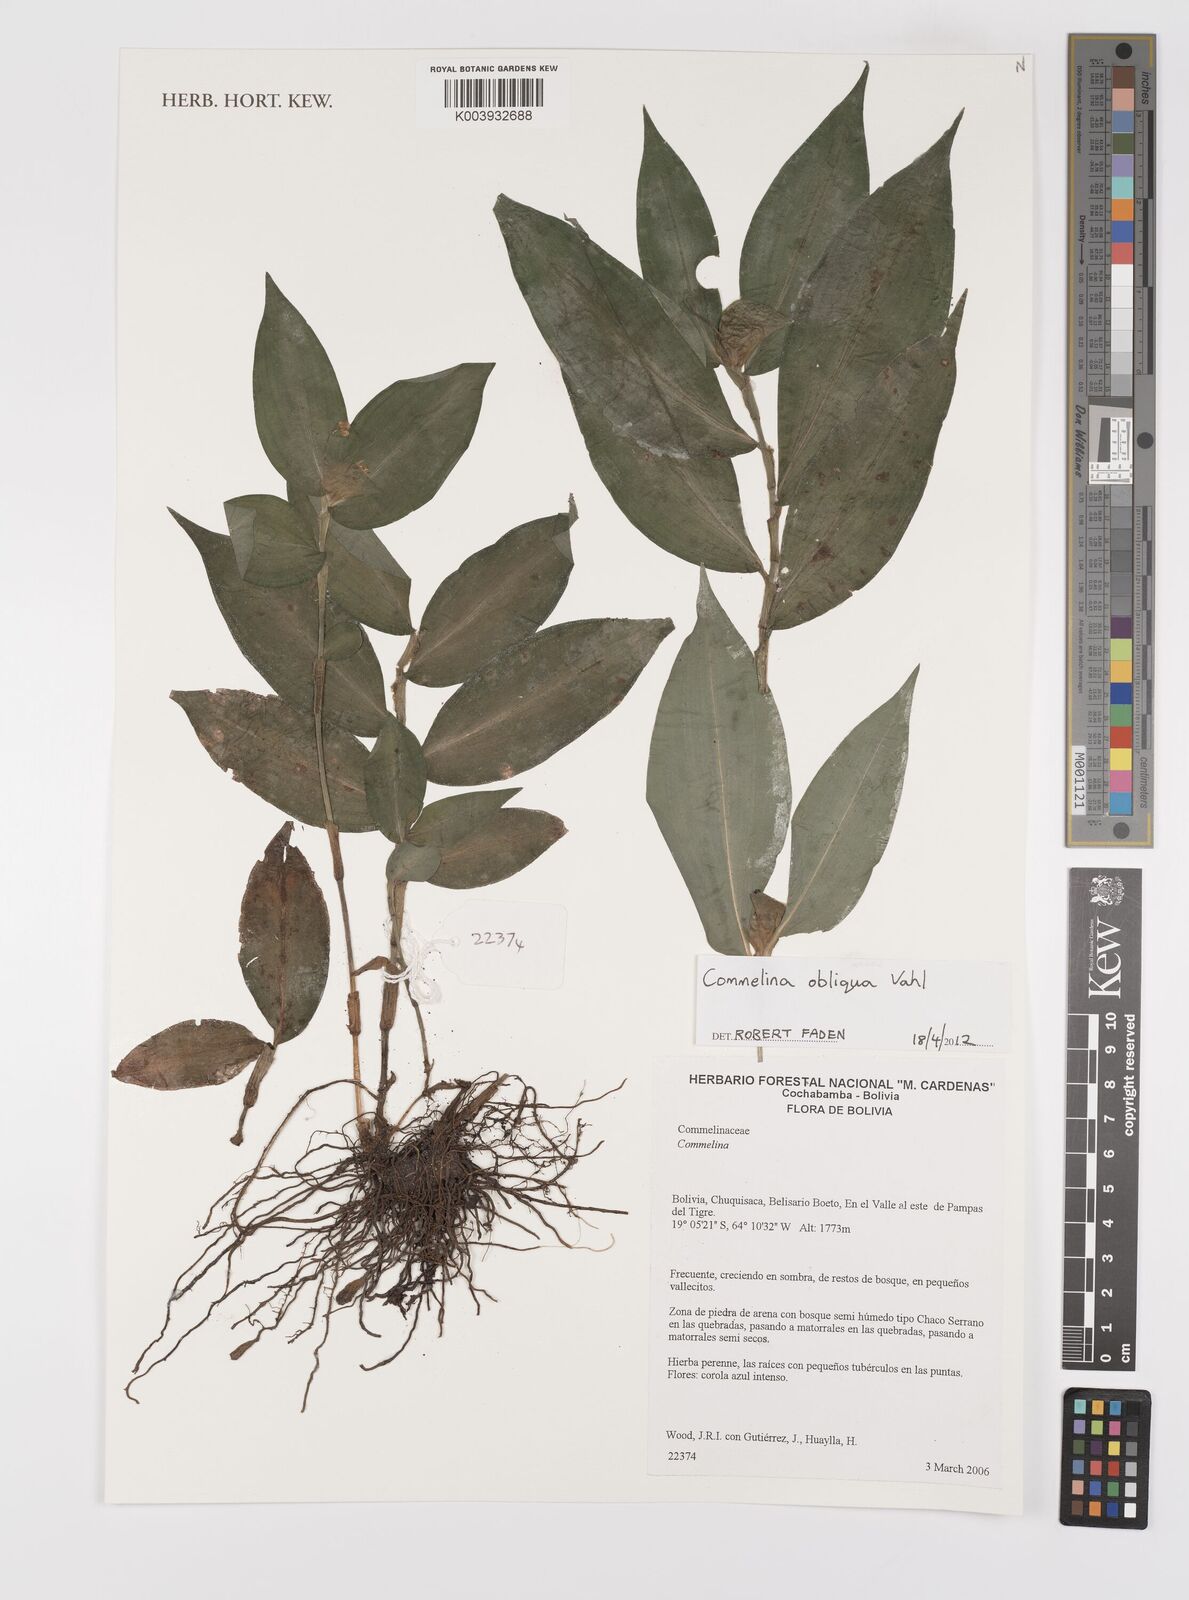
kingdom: Plantae
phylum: Tracheophyta
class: Liliopsida
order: Commelinales
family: Commelinaceae
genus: Commelina
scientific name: Commelina obliqua
